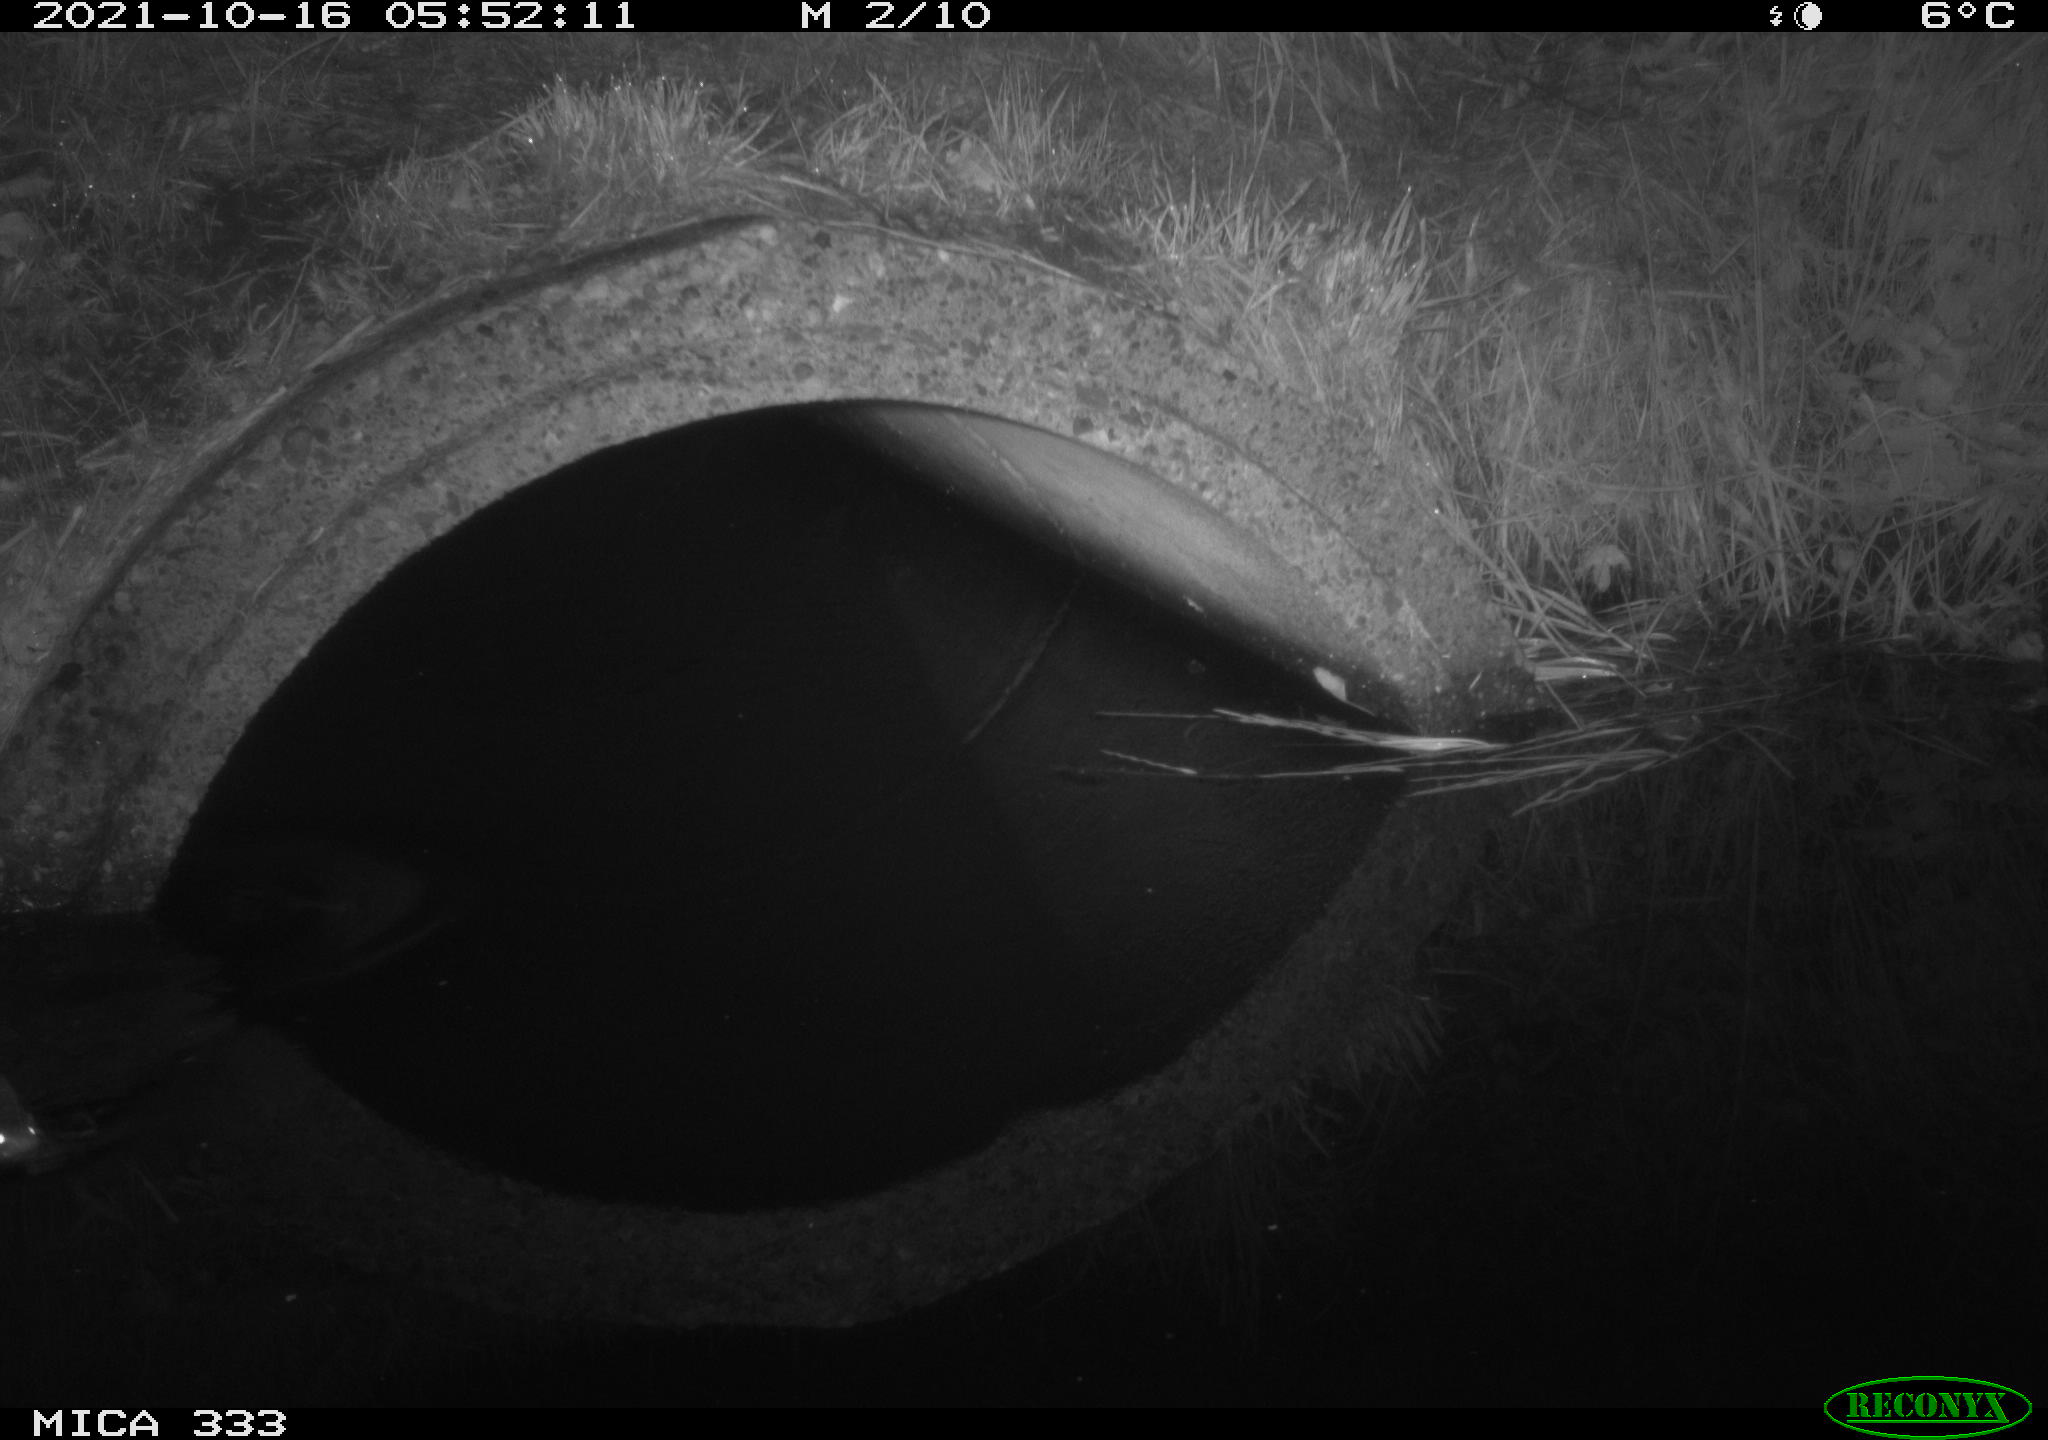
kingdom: Animalia
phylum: Chordata
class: Mammalia
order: Rodentia
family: Muridae
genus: Rattus
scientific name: Rattus norvegicus
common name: Brown rat
